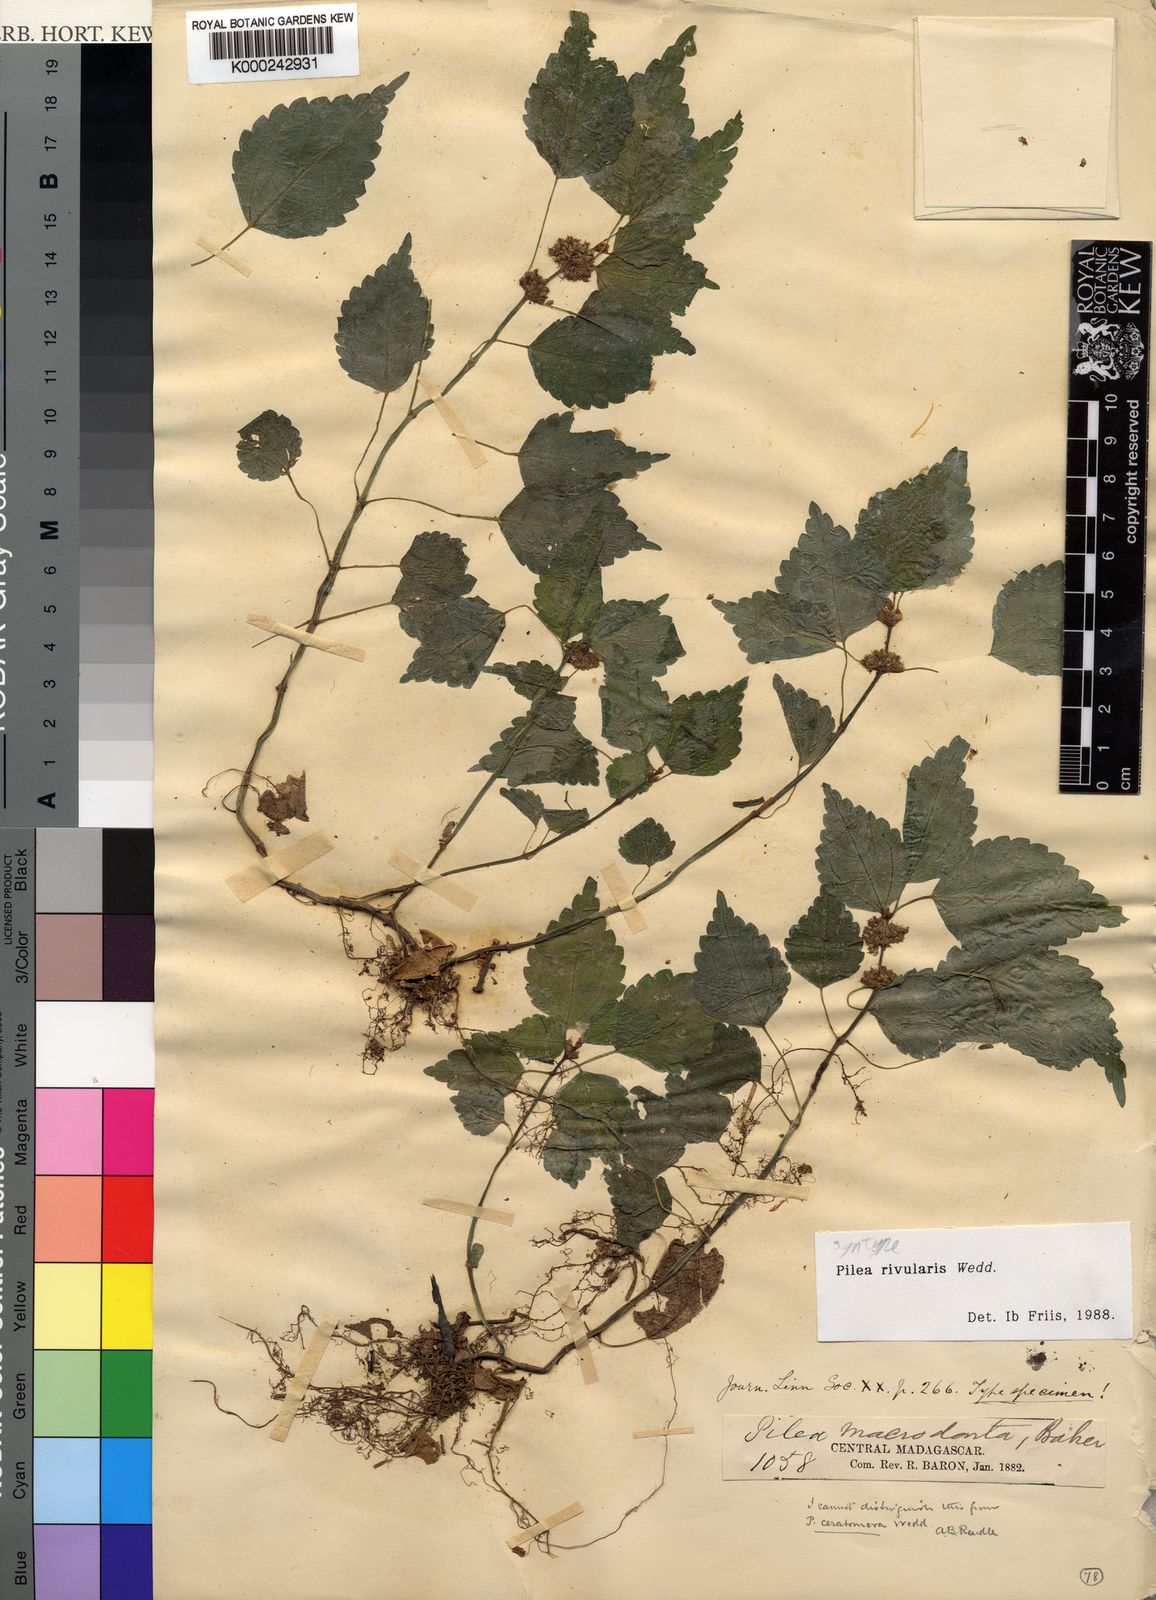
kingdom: Plantae
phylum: Tracheophyta
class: Magnoliopsida
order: Rosales
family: Urticaceae
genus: Pilea
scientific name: Pilea rivularis
